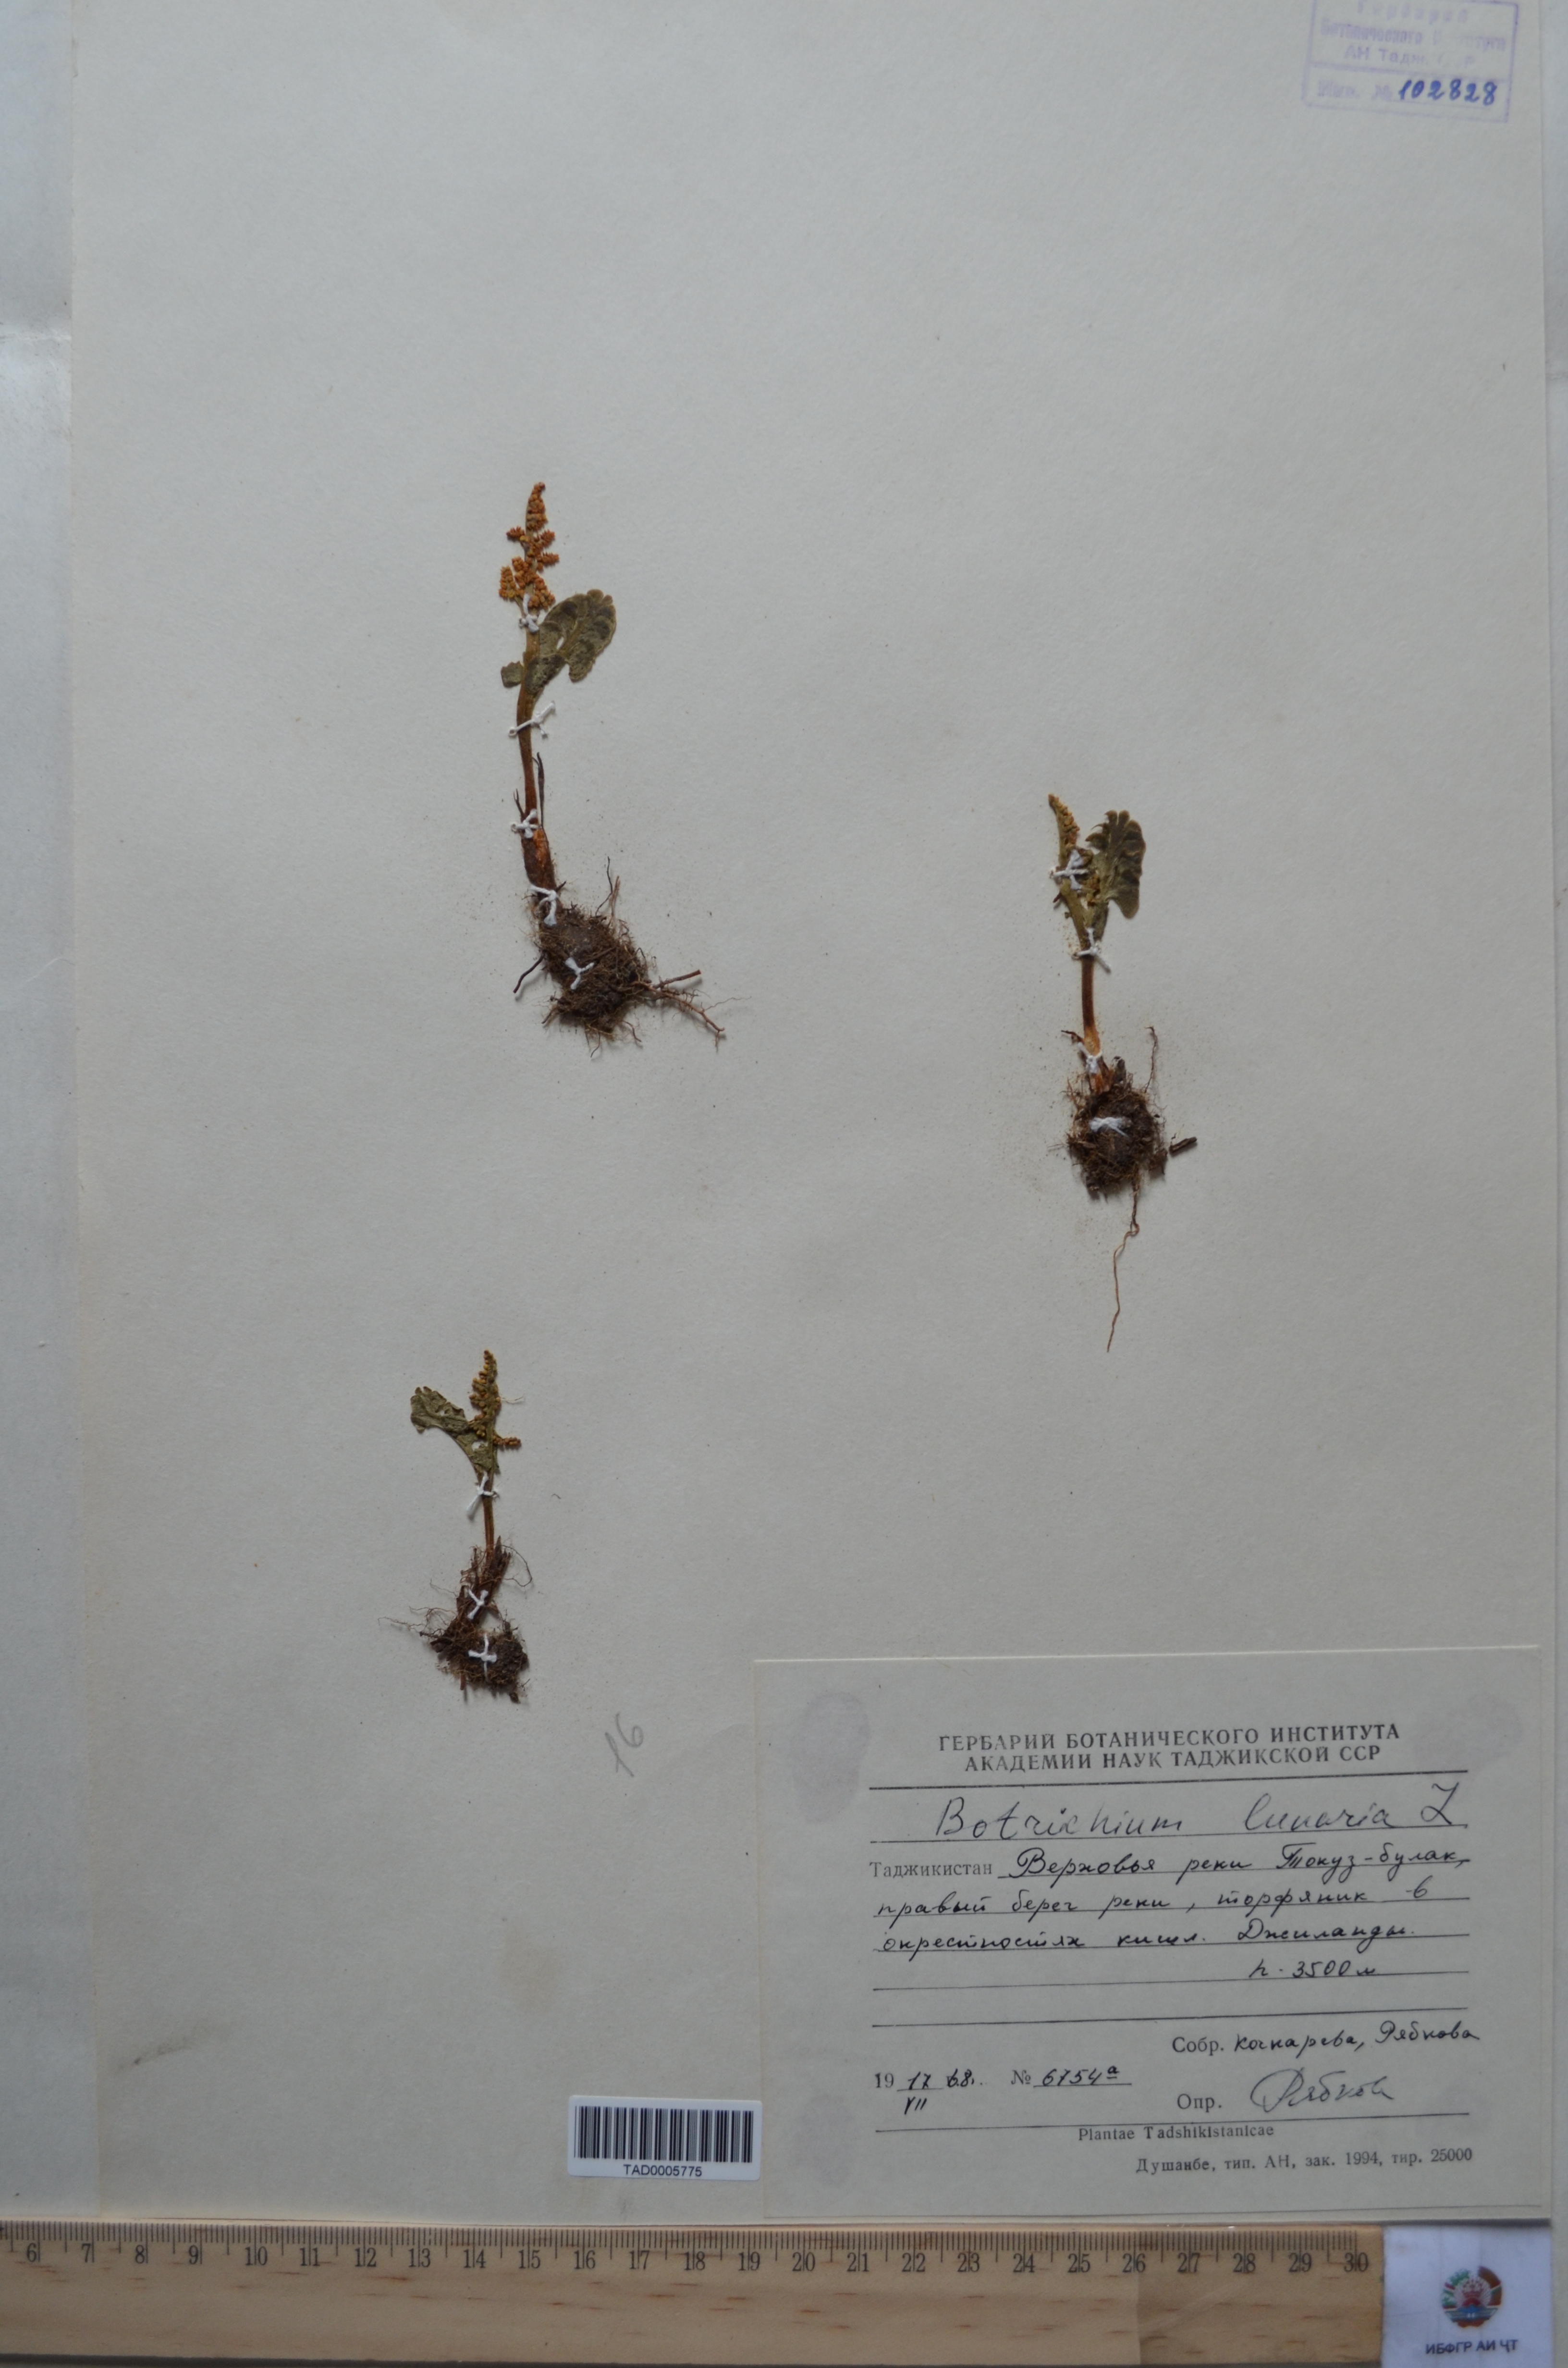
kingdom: Plantae
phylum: Tracheophyta
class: Polypodiopsida
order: Ophioglossales
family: Ophioglossaceae
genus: Botrychium
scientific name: Botrychium lunaria
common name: Moonwort
